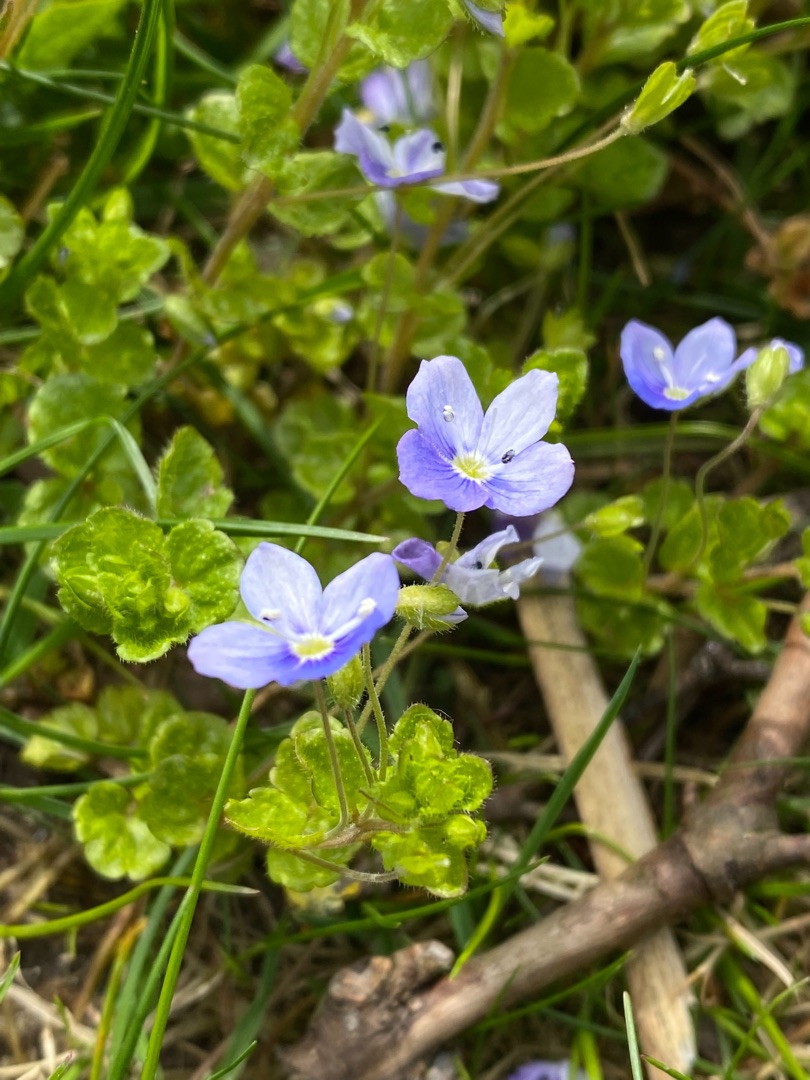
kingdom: Plantae
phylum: Tracheophyta
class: Magnoliopsida
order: Lamiales
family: Plantaginaceae
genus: Veronica
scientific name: Veronica filiformis
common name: Tråd-ærenpris
